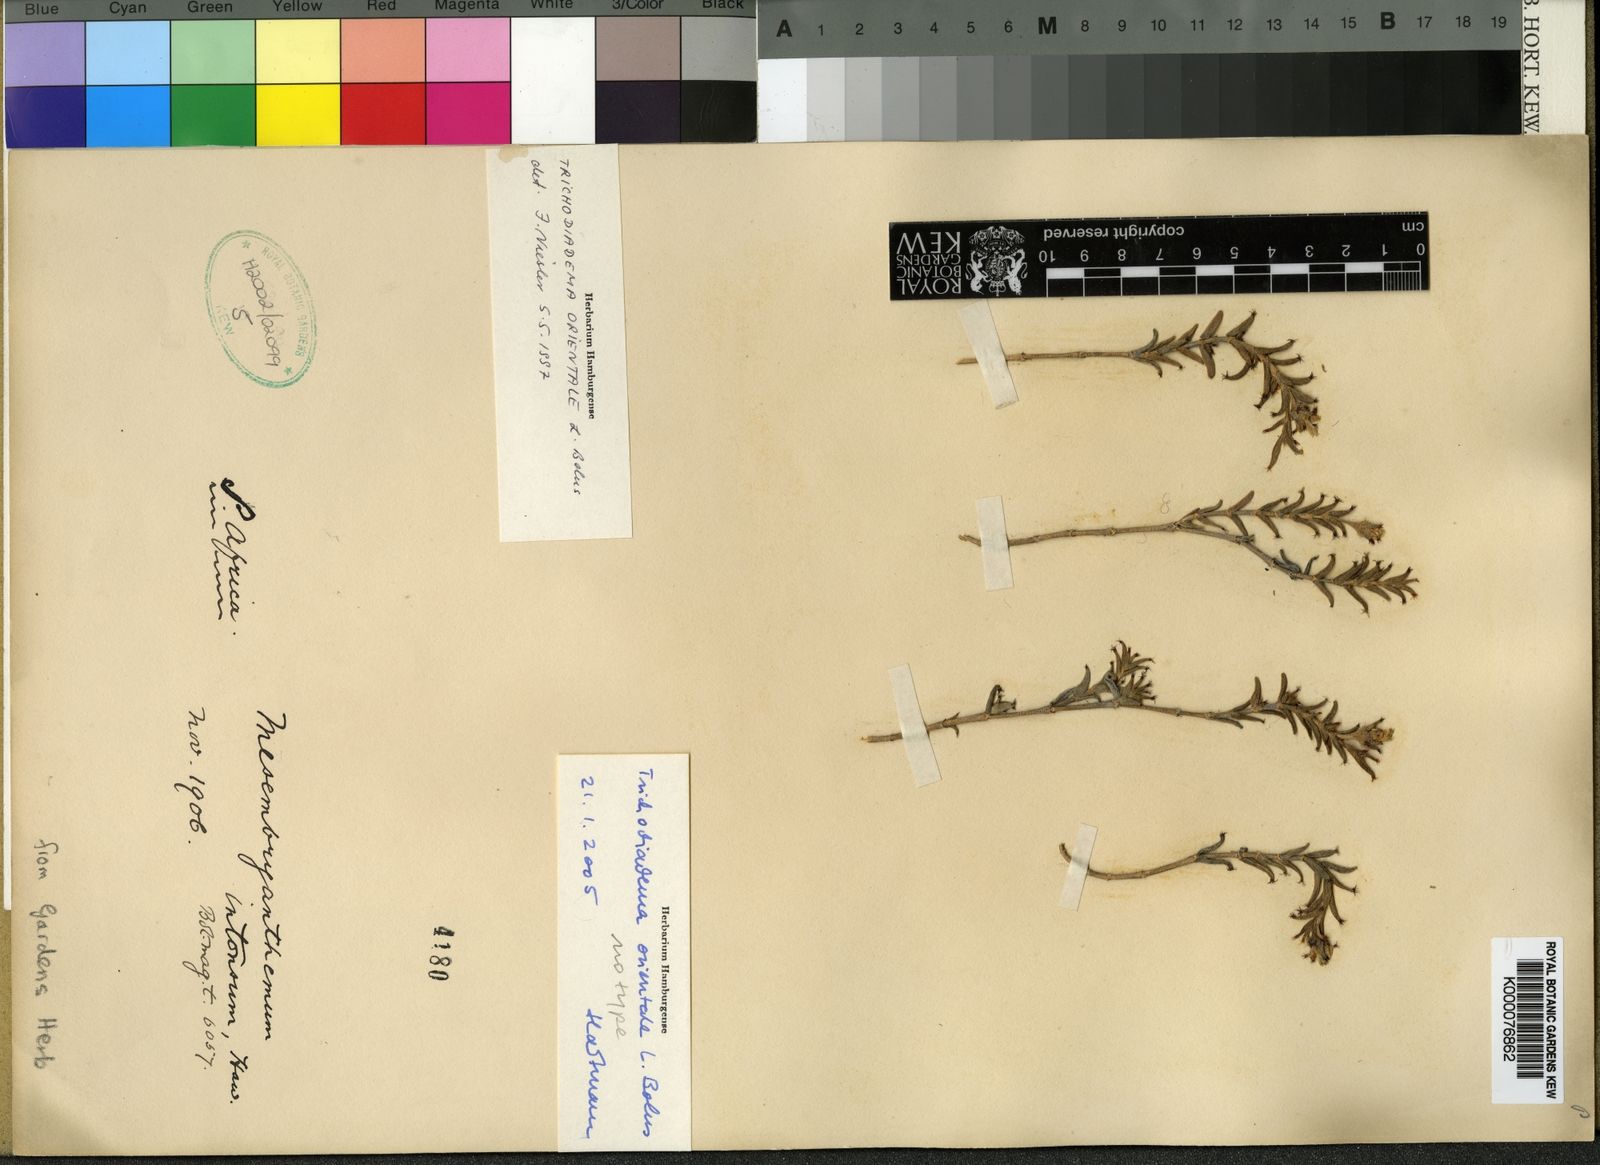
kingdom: Plantae
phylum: Tracheophyta
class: Magnoliopsida
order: Caryophyllales
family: Aizoaceae
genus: Trichodiadema
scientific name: Trichodiadema orientale
